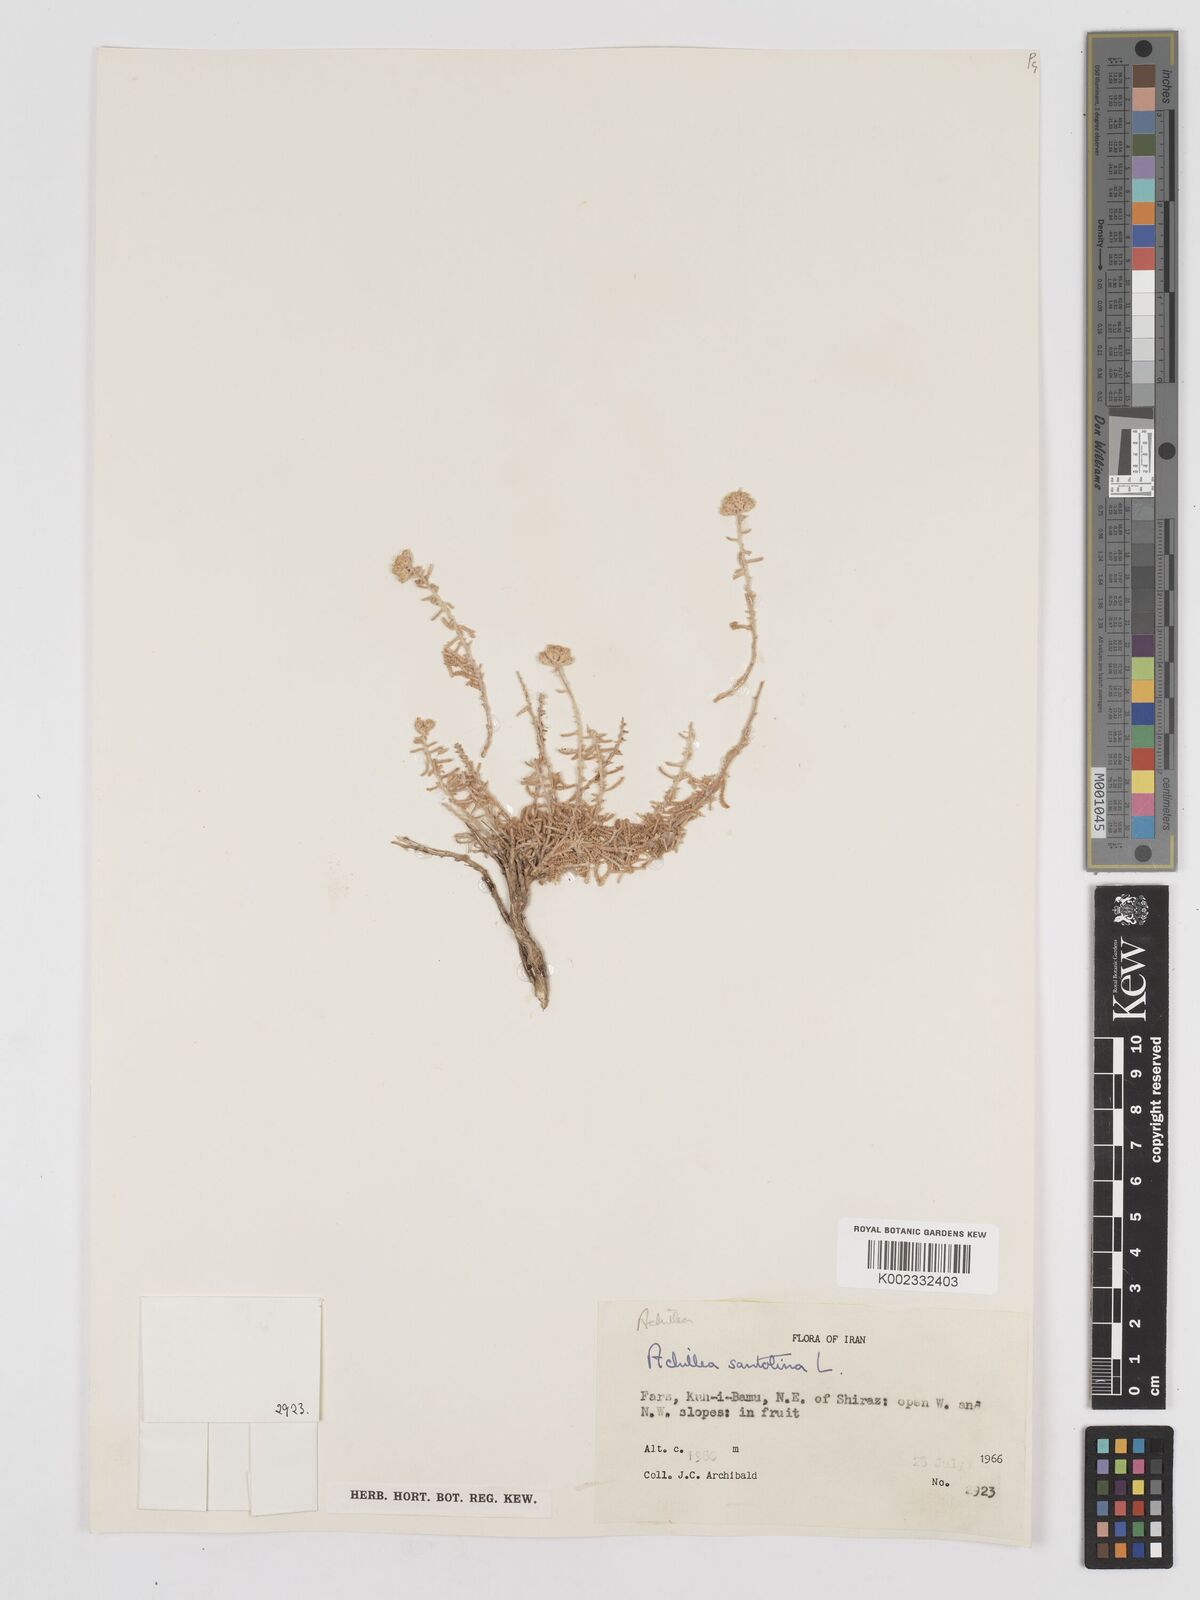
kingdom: Plantae
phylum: Tracheophyta
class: Magnoliopsida
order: Asterales
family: Asteraceae
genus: Achillea
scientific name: Achillea cretica
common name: Chamomile-leaved lavender-cotton
